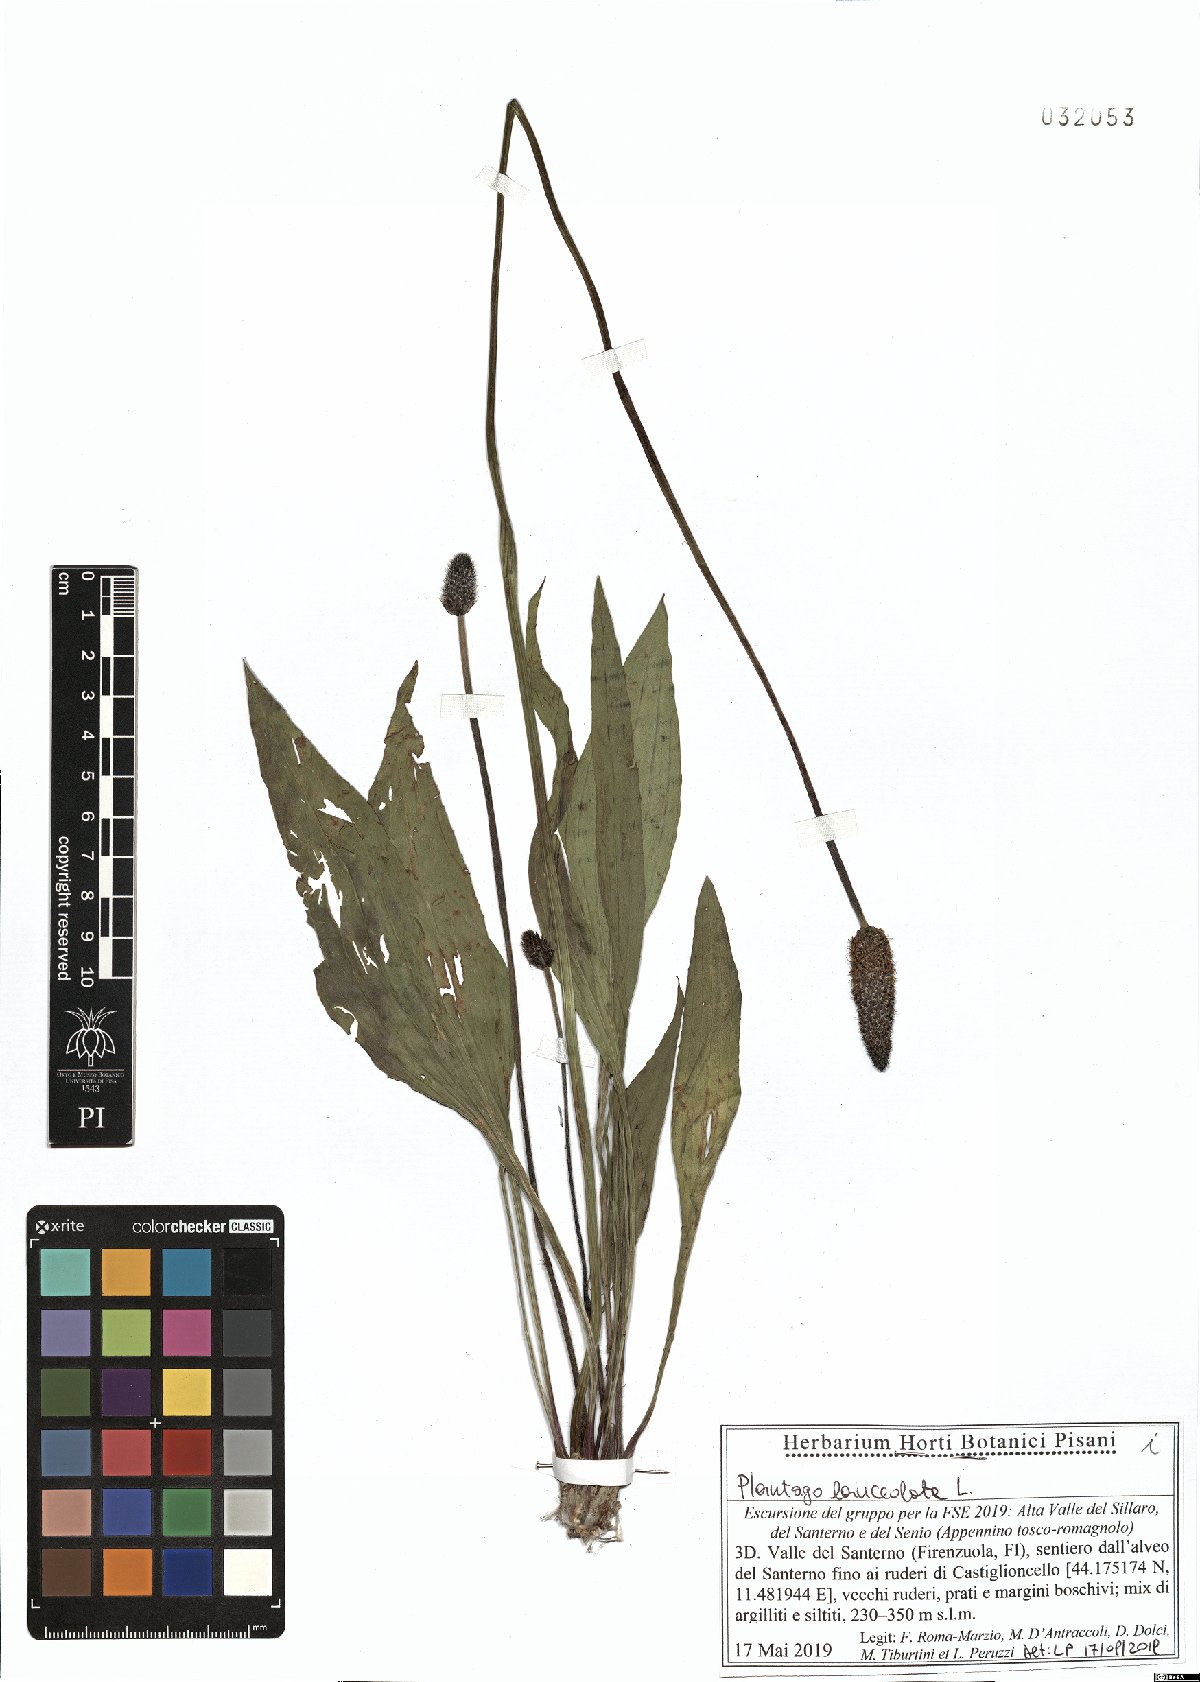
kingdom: Plantae
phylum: Tracheophyta
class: Magnoliopsida
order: Lamiales
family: Plantaginaceae
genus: Plantago
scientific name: Plantago lanceolata
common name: Ribwort plantain
